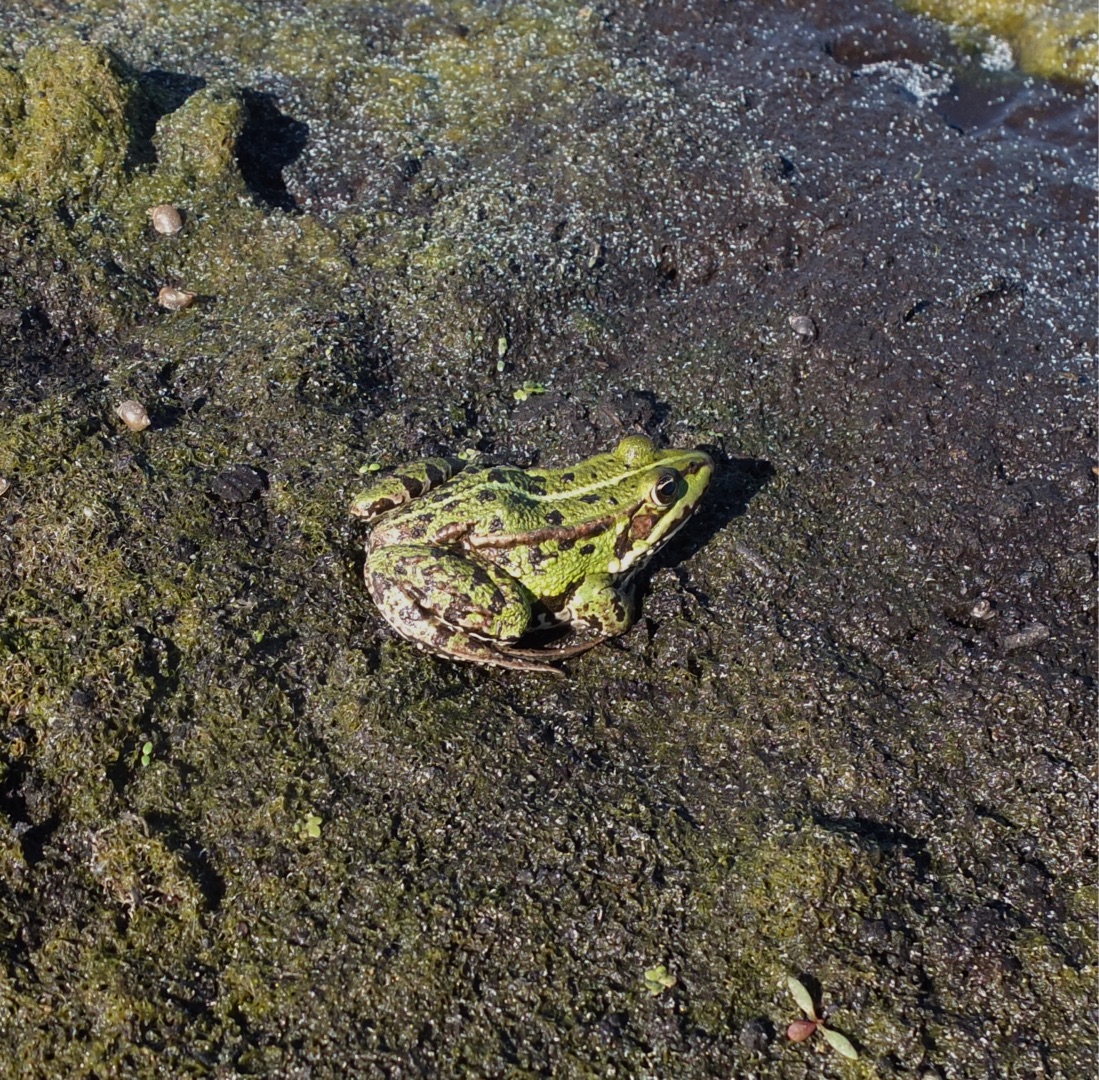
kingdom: Animalia
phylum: Chordata
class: Amphibia
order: Anura
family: Ranidae
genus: Pelophylax
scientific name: Pelophylax lessonae
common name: Grøn frø
